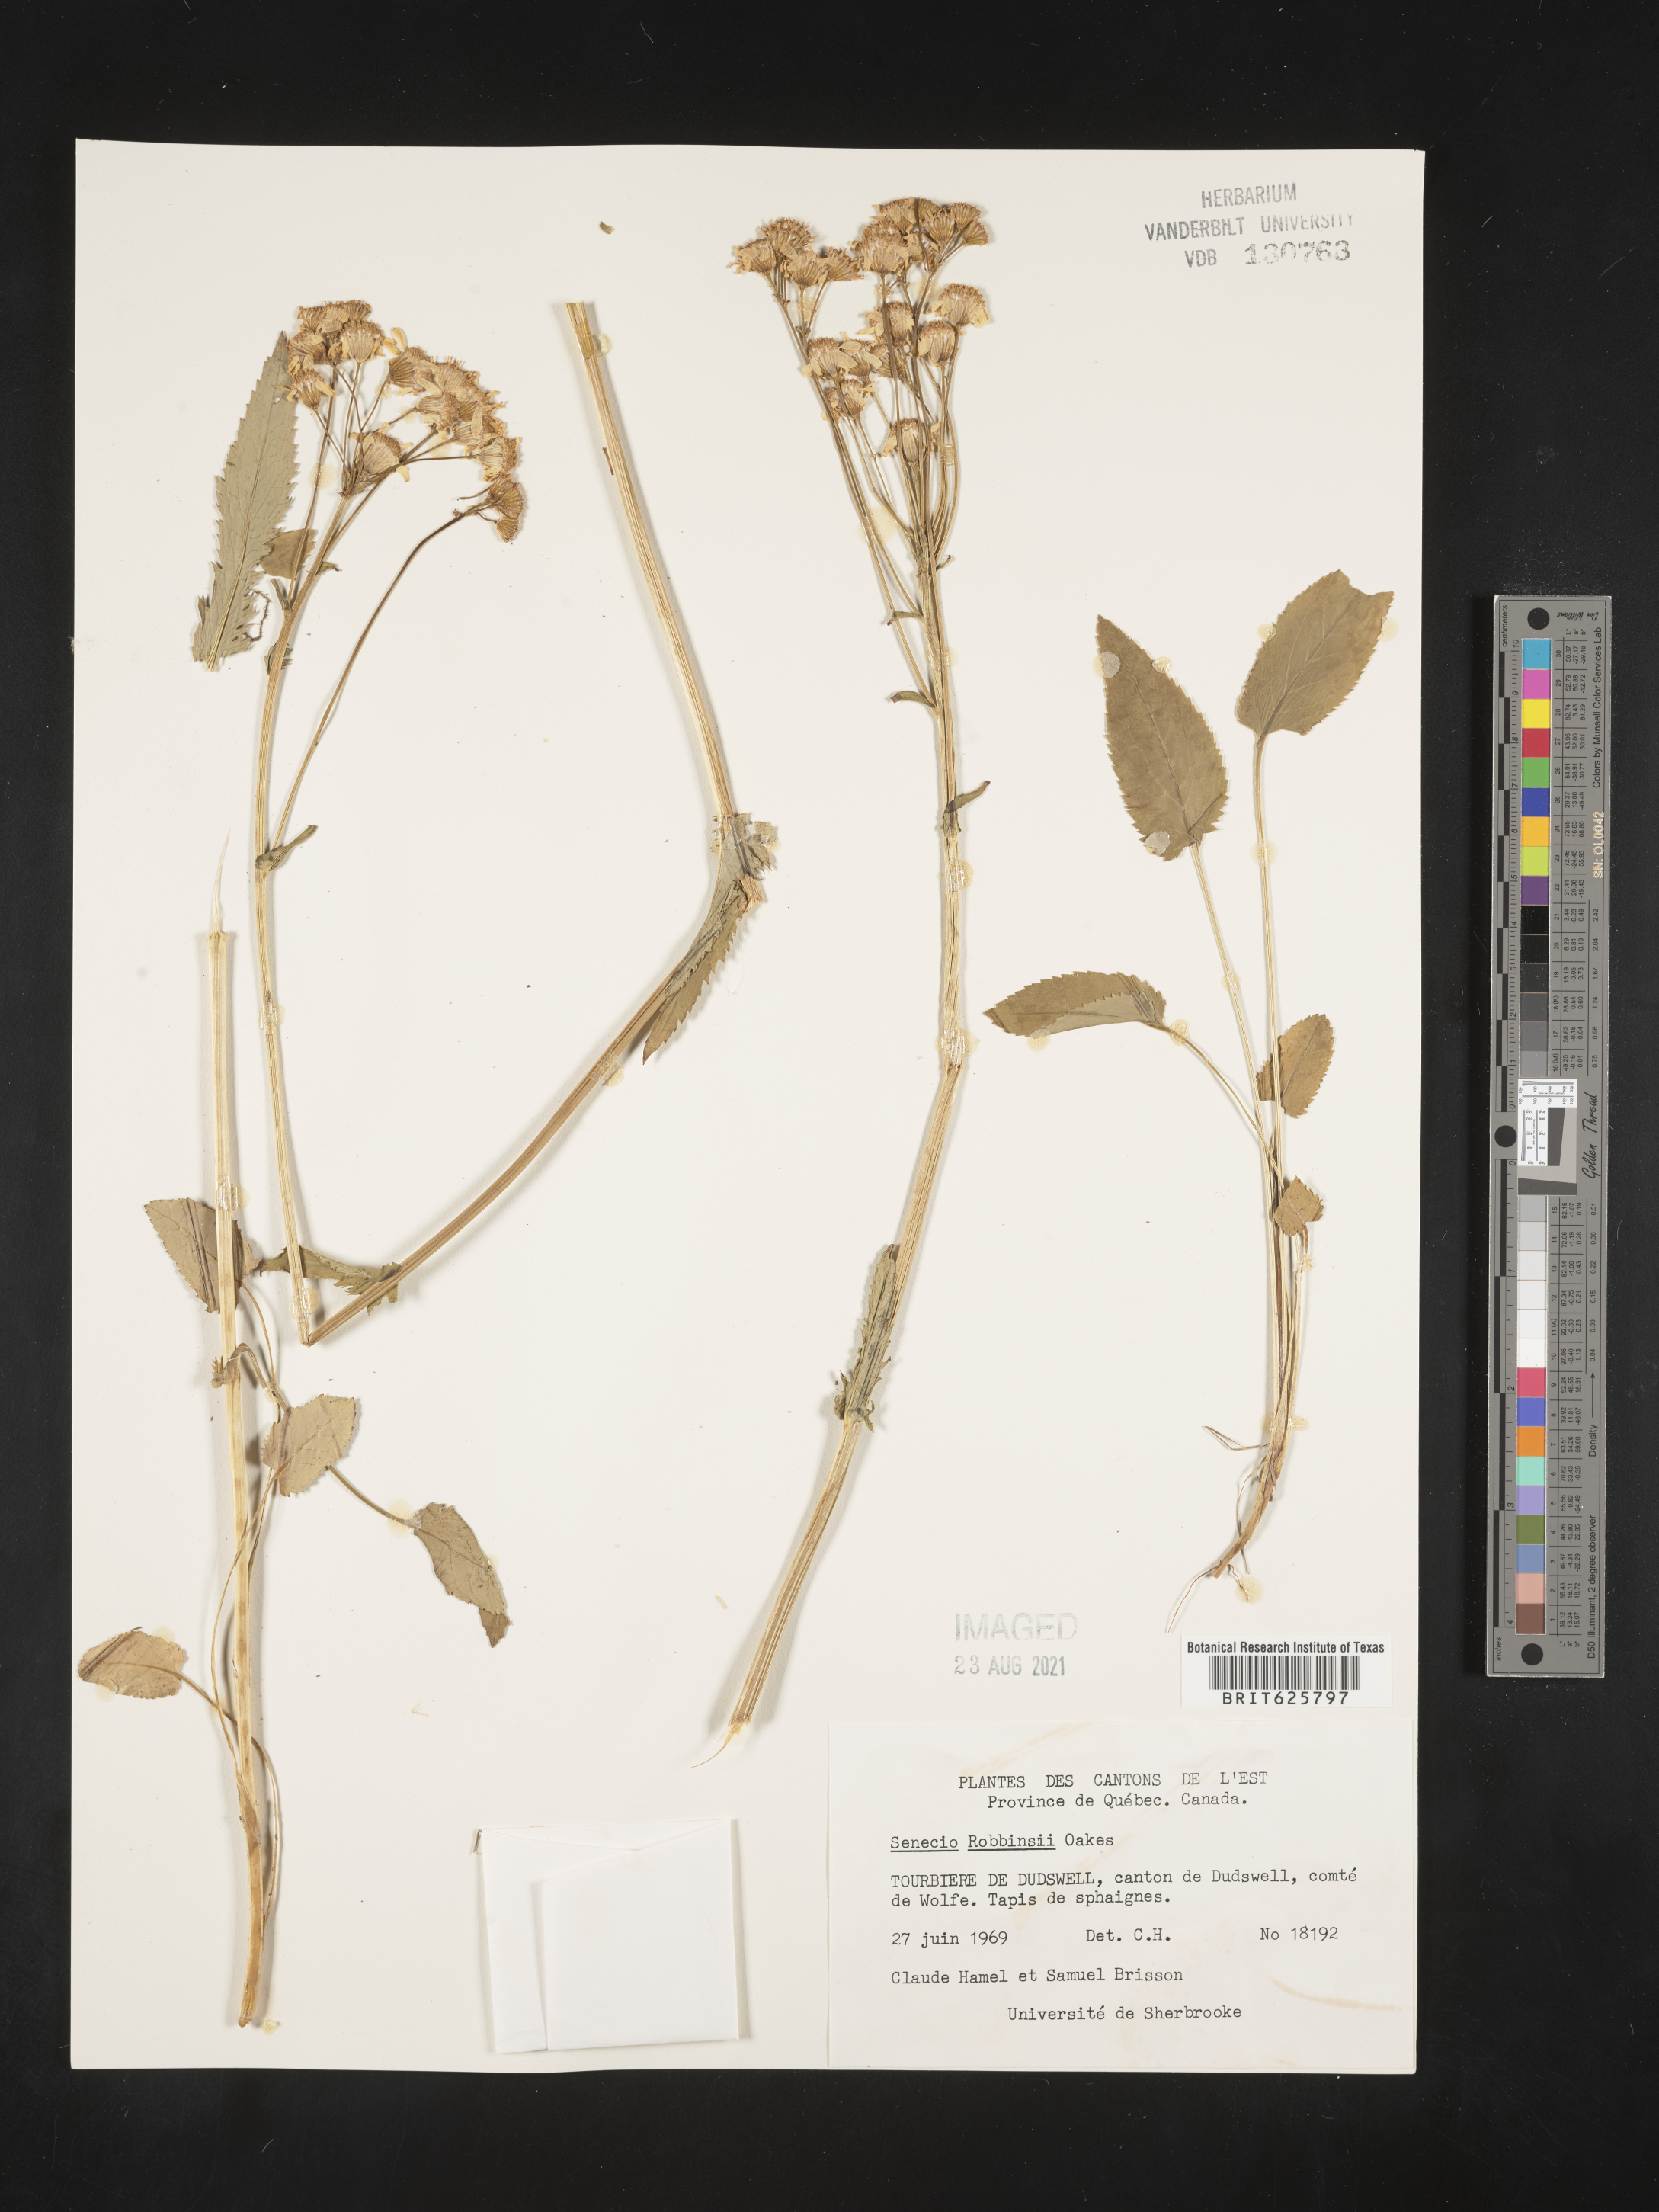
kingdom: Plantae
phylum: Tracheophyta
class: Magnoliopsida
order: Asterales
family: Asteraceae
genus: Packera
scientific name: Packera schweinitziana
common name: Schweinitz's ragwort
